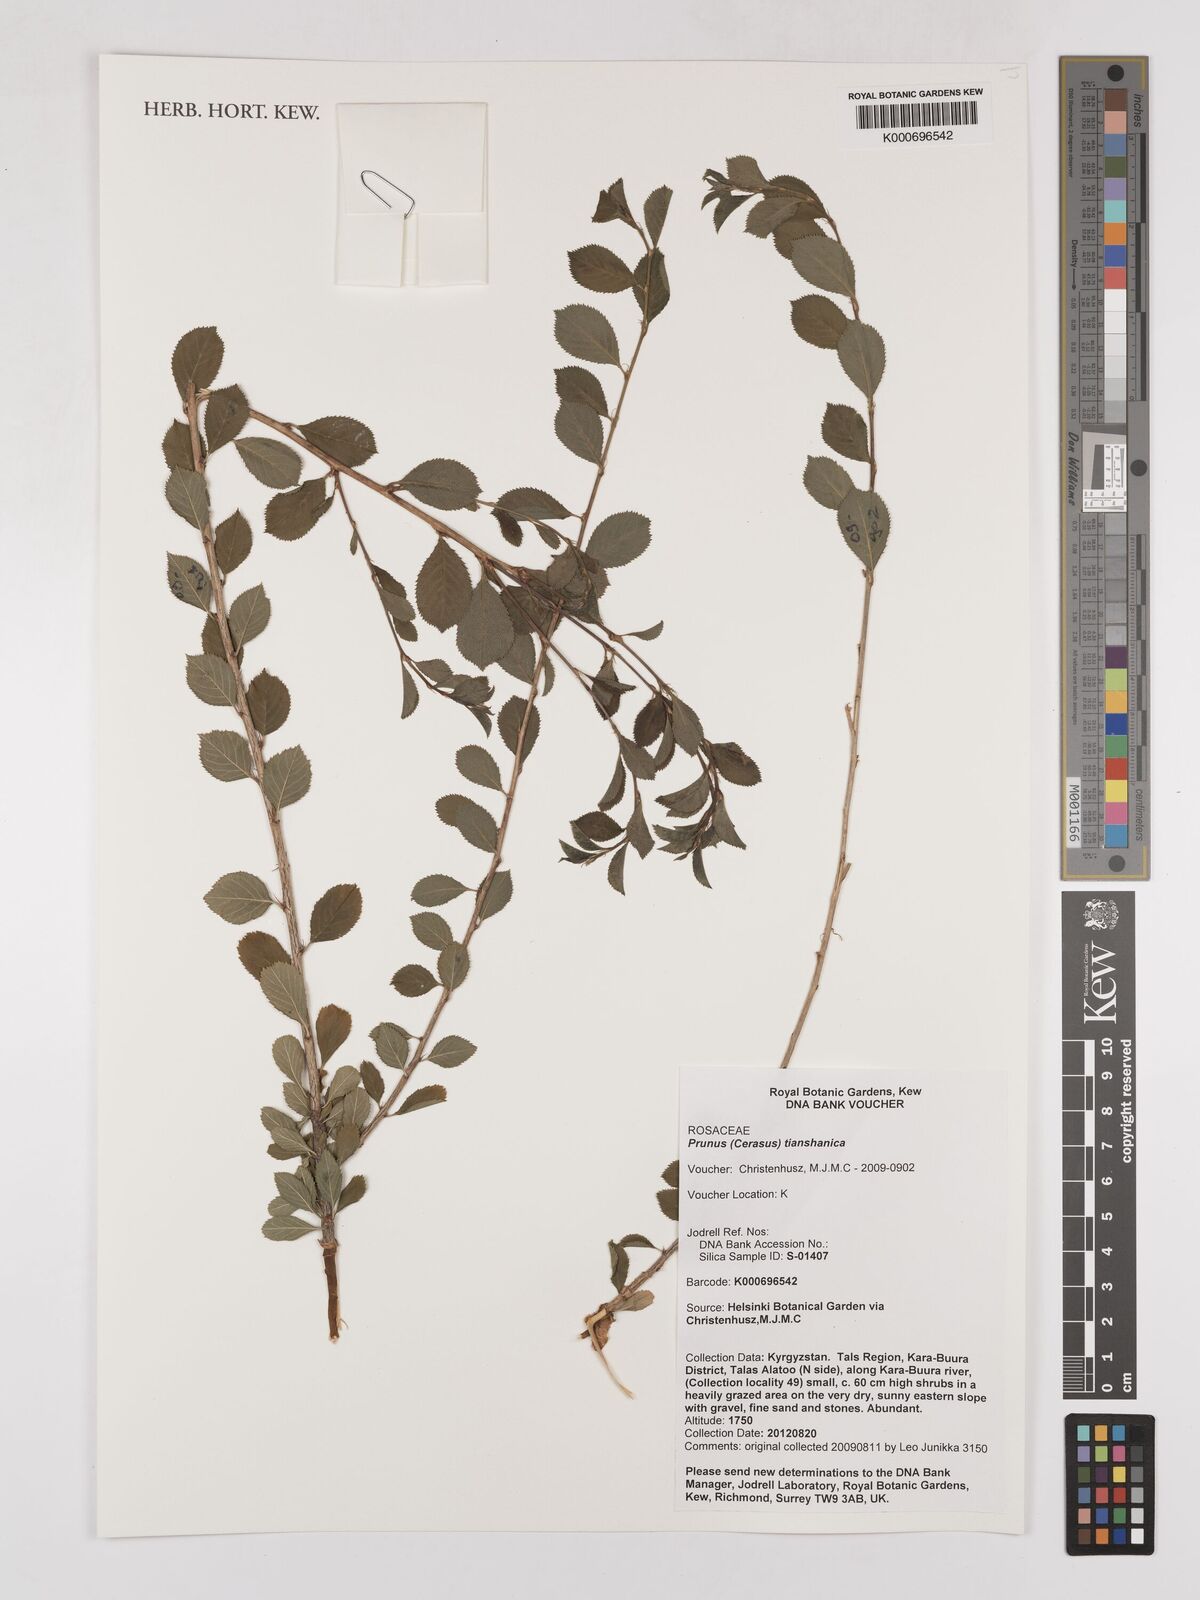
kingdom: Plantae
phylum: Tracheophyta
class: Magnoliopsida
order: Rosales
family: Rosaceae
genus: Prunus
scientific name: Prunus
